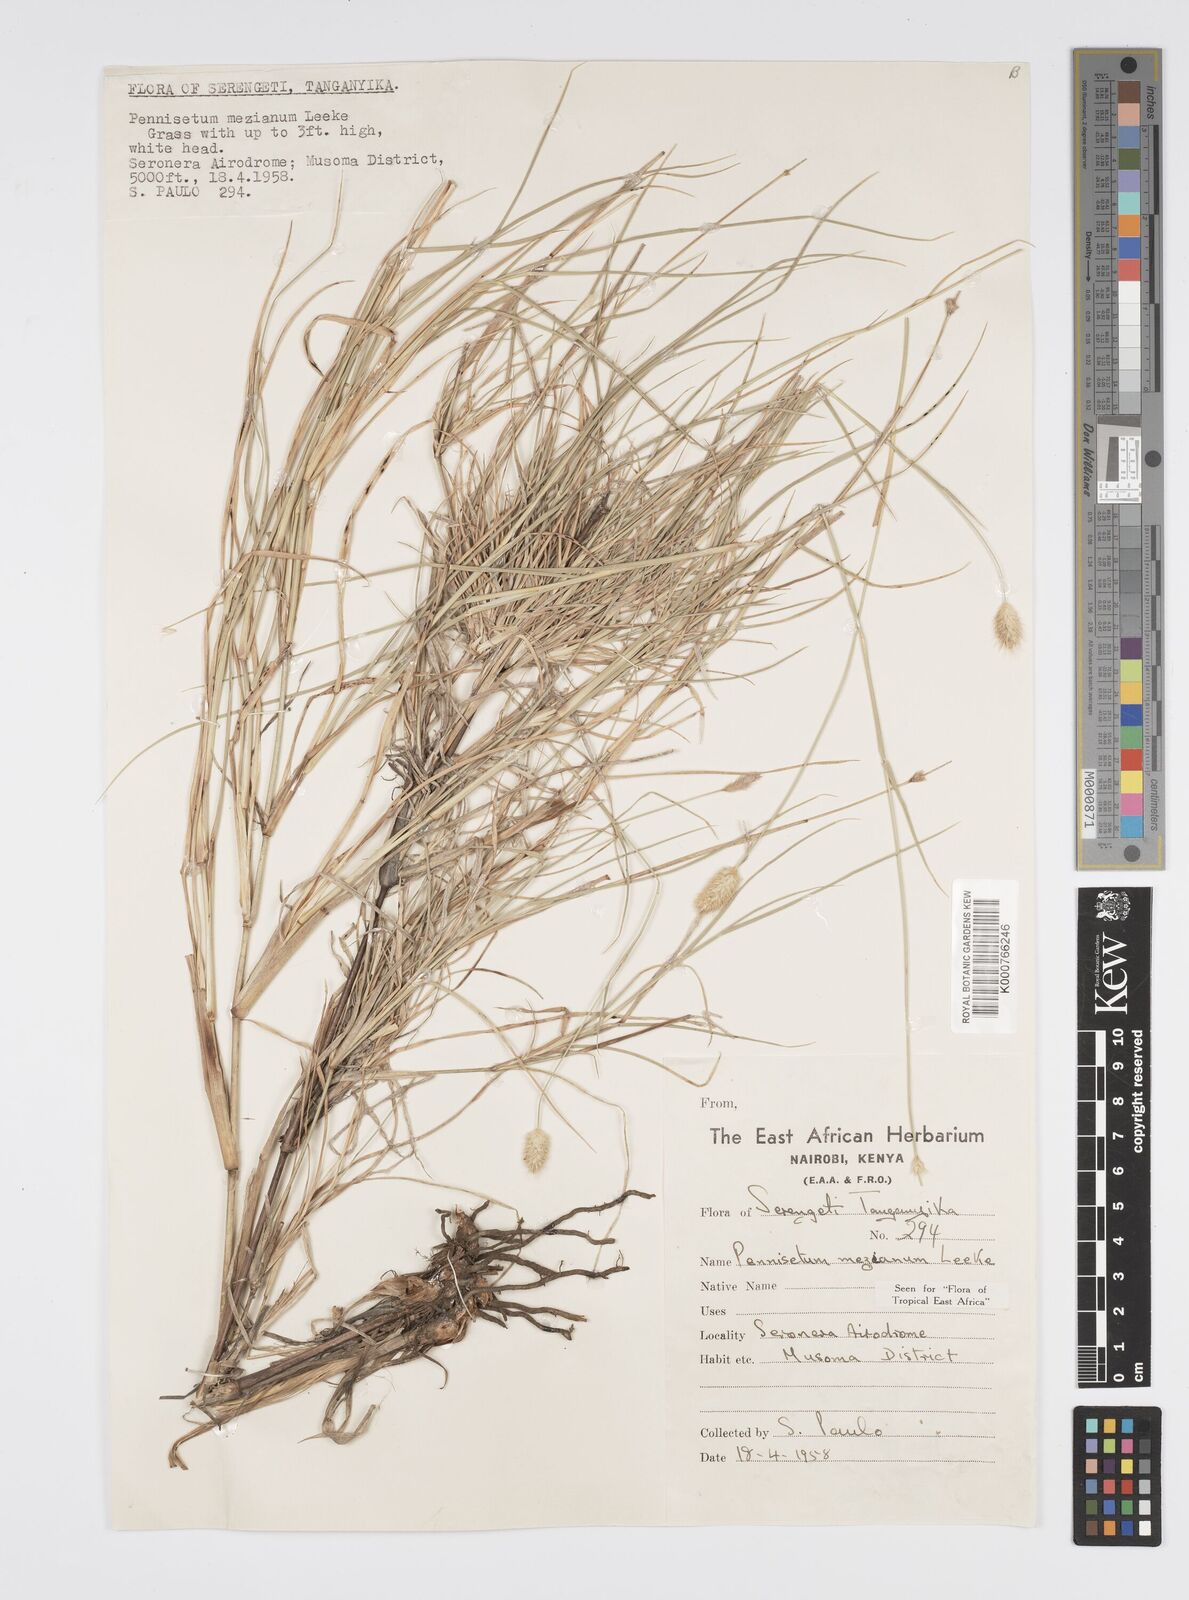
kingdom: Plantae
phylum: Tracheophyta
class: Liliopsida
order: Poales
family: Poaceae
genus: Cenchrus
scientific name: Cenchrus mezianus
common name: Bamboo grass
